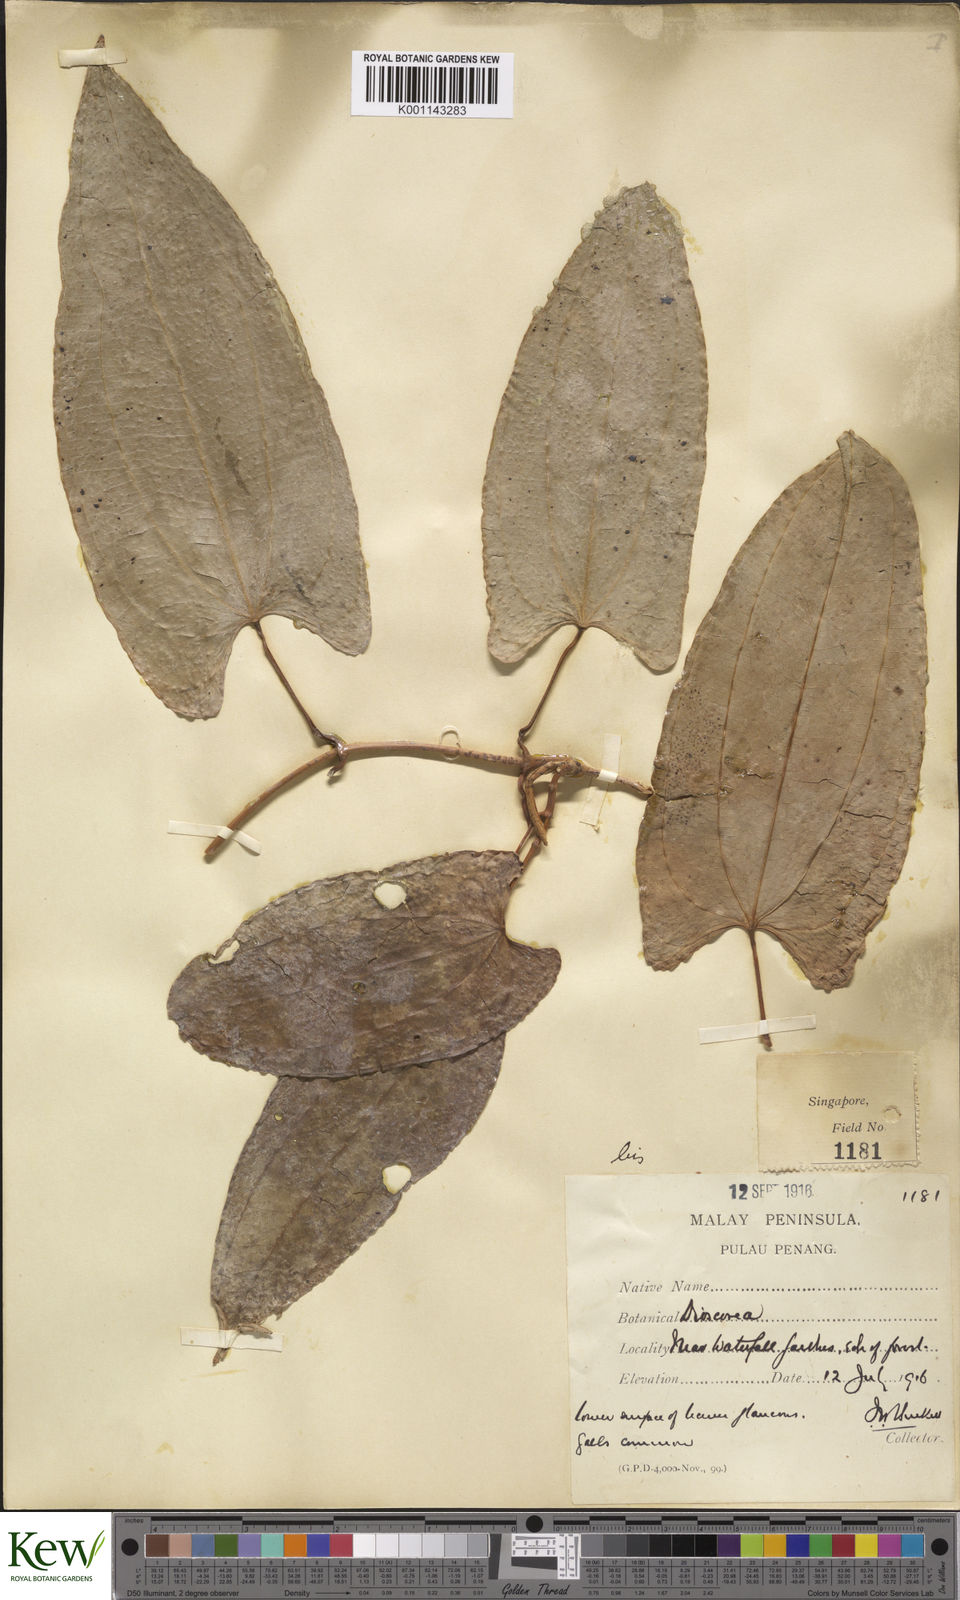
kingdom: Plantae
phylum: Tracheophyta
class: Liliopsida
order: Dioscoreales
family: Dioscoreaceae
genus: Dioscorea
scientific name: Dioscorea glabra
